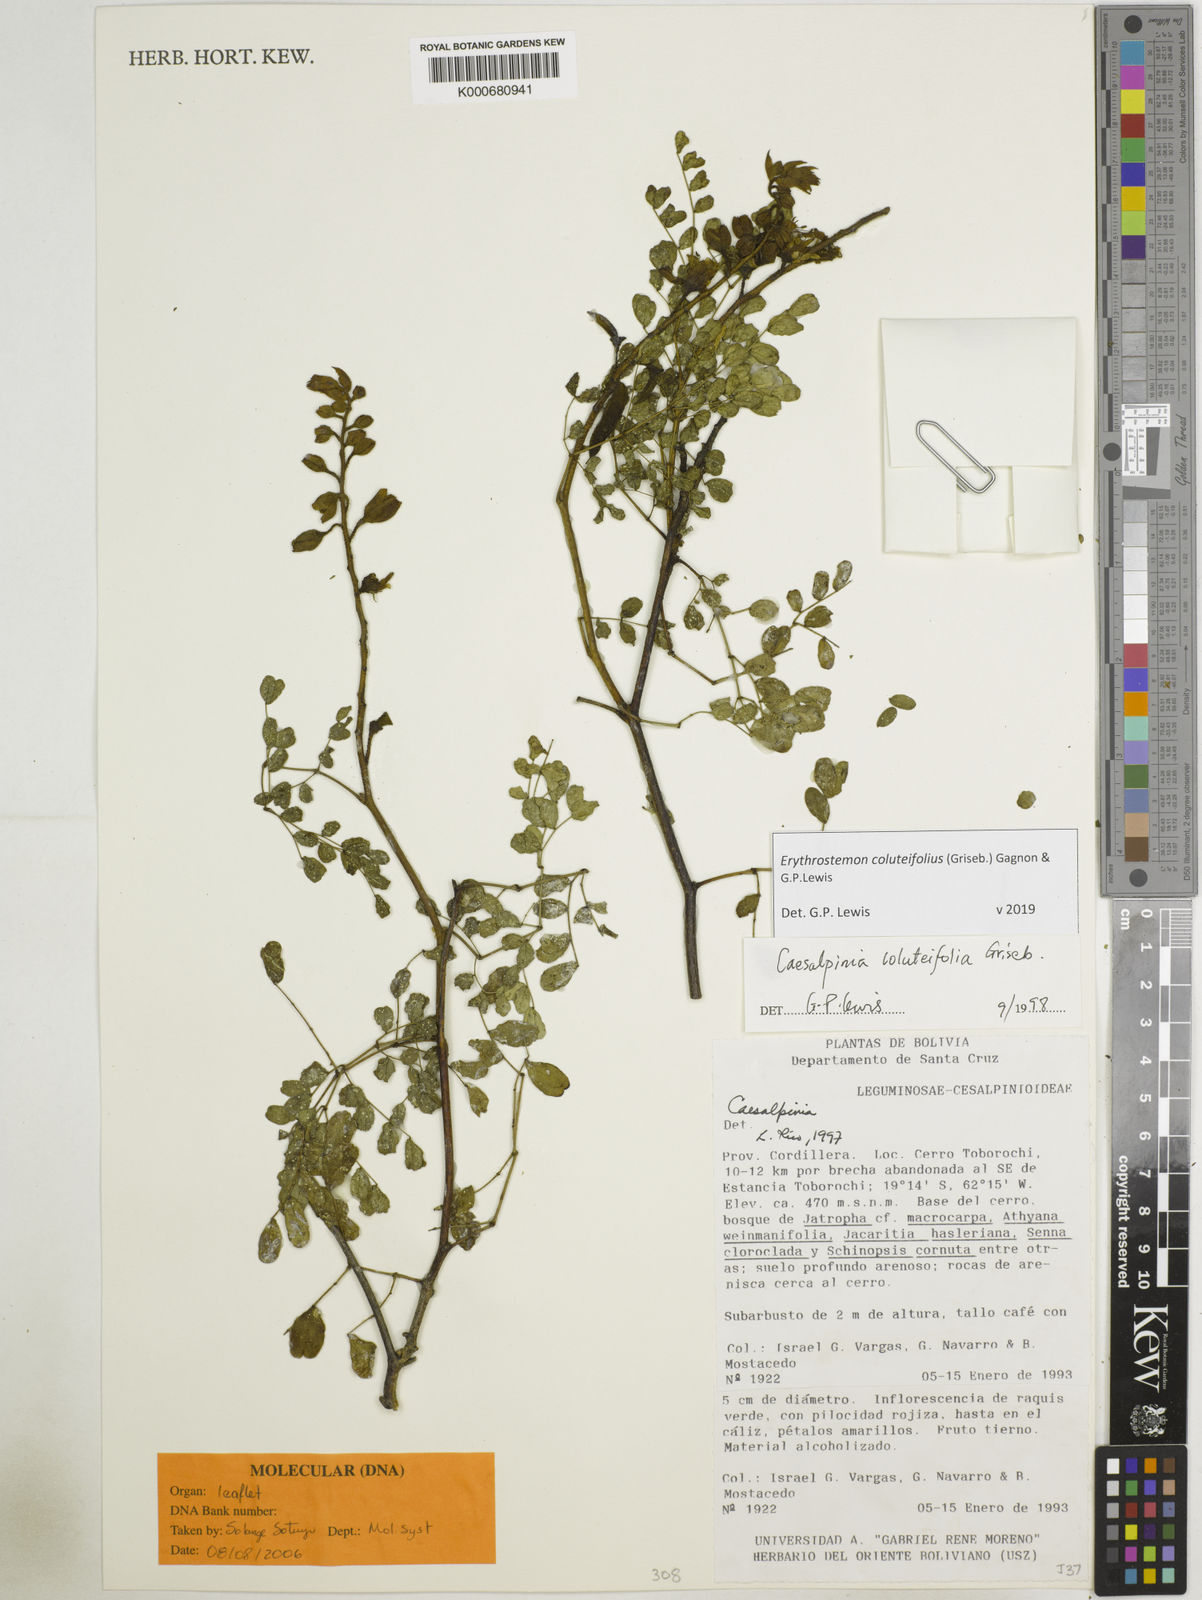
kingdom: Plantae
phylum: Tracheophyta
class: Magnoliopsida
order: Fabales
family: Fabaceae
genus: Erythrostemon
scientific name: Erythrostemon coluteifolius
